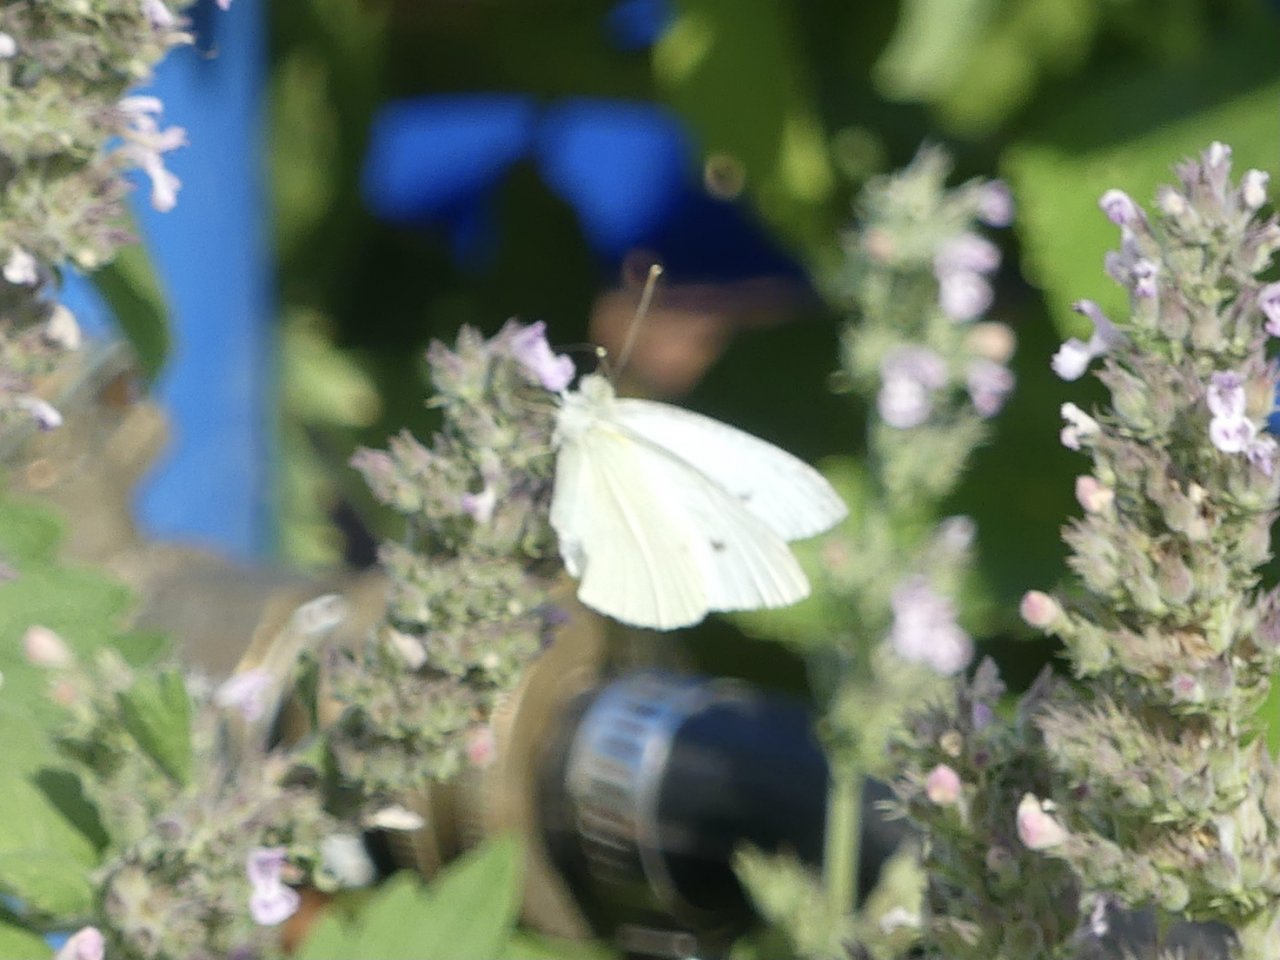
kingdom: Animalia
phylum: Arthropoda
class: Insecta
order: Lepidoptera
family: Pieridae
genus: Pieris
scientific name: Pieris rapae
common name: Cabbage White
